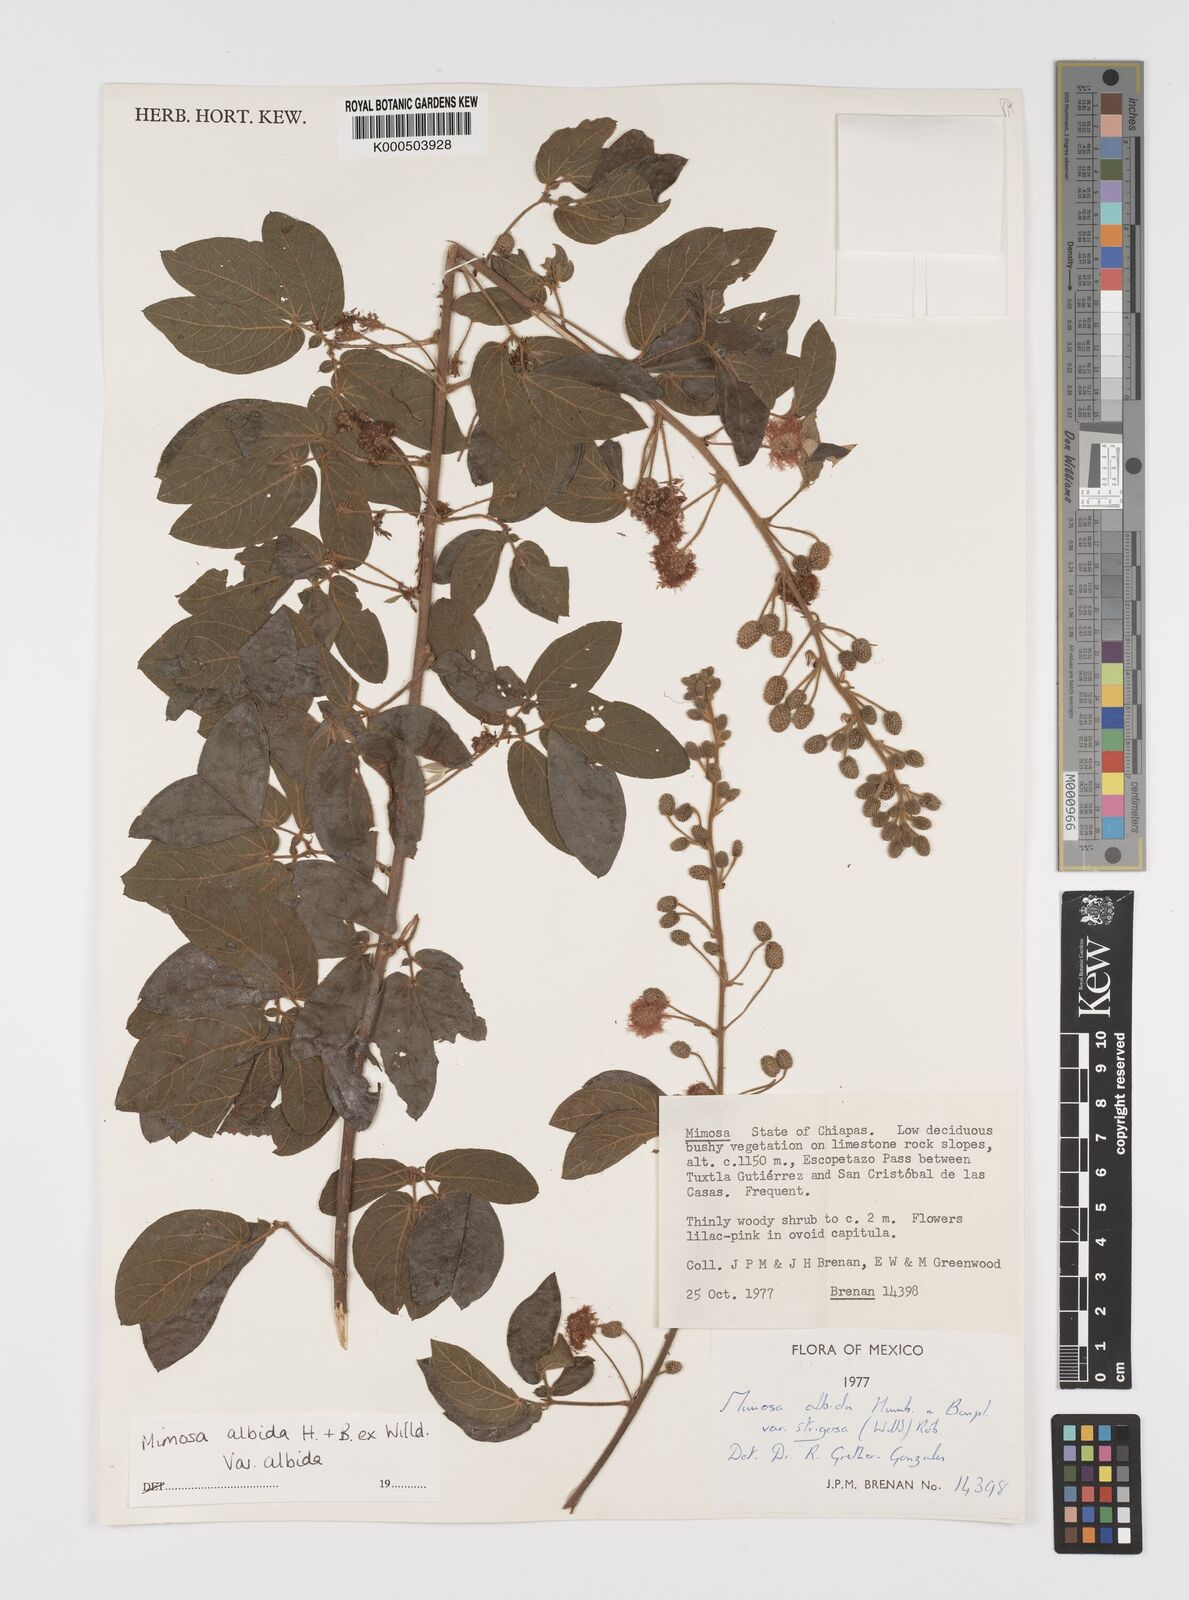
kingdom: Plantae
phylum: Tracheophyta
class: Magnoliopsida
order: Fabales
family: Fabaceae
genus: Mimosa
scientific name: Mimosa albida
